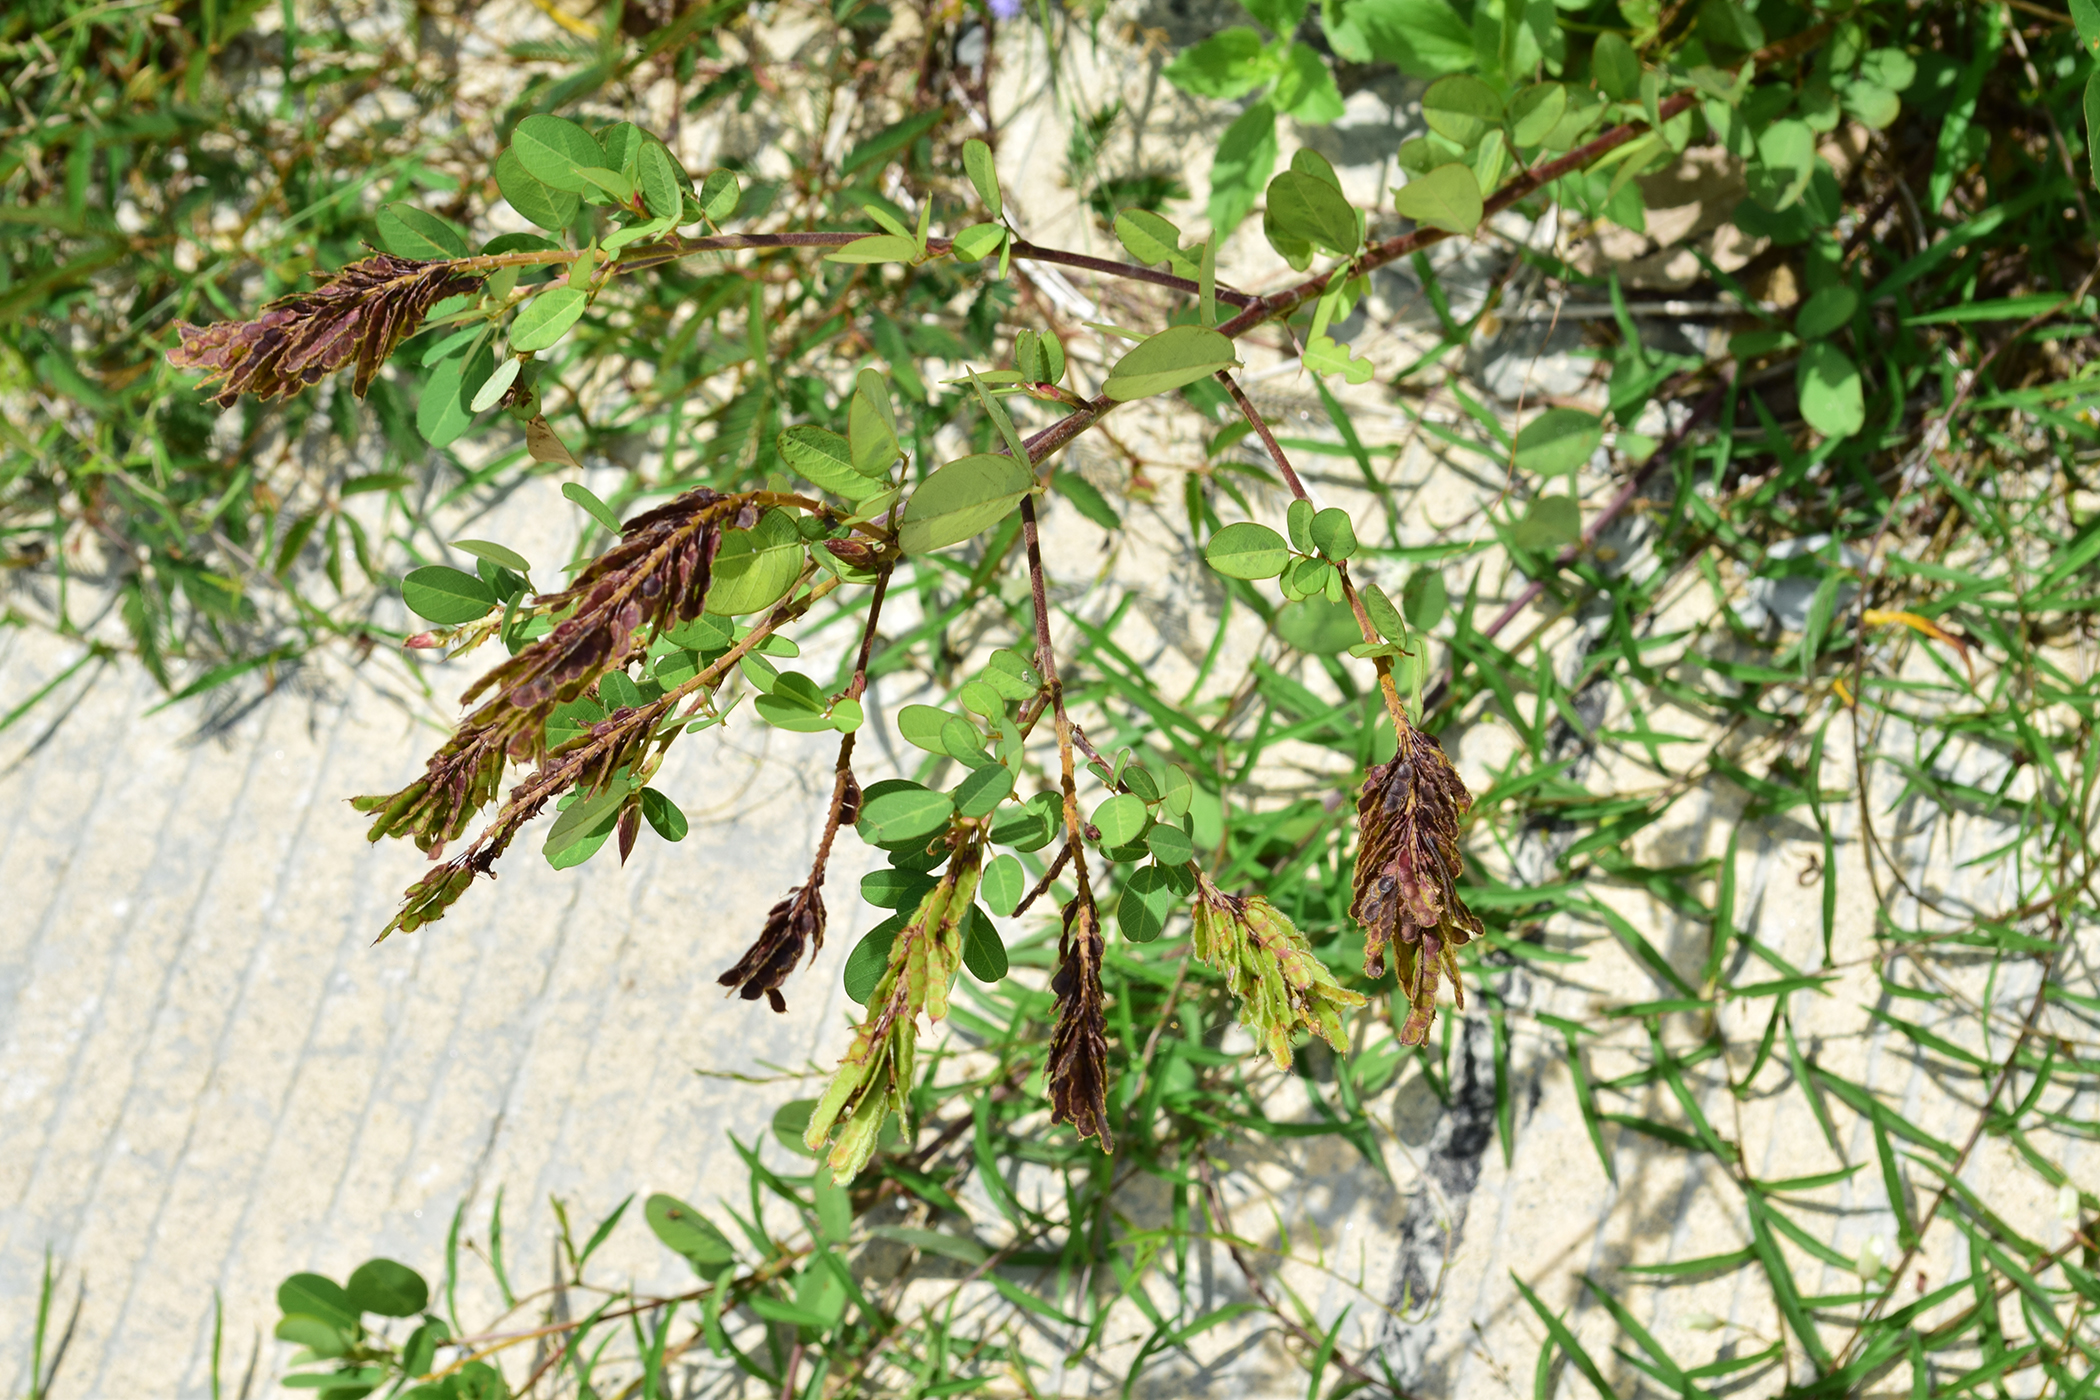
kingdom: Plantae
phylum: Tracheophyta
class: Magnoliopsida
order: Fabales
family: Fabaceae
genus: Grona
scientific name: Grona heterocarpos
